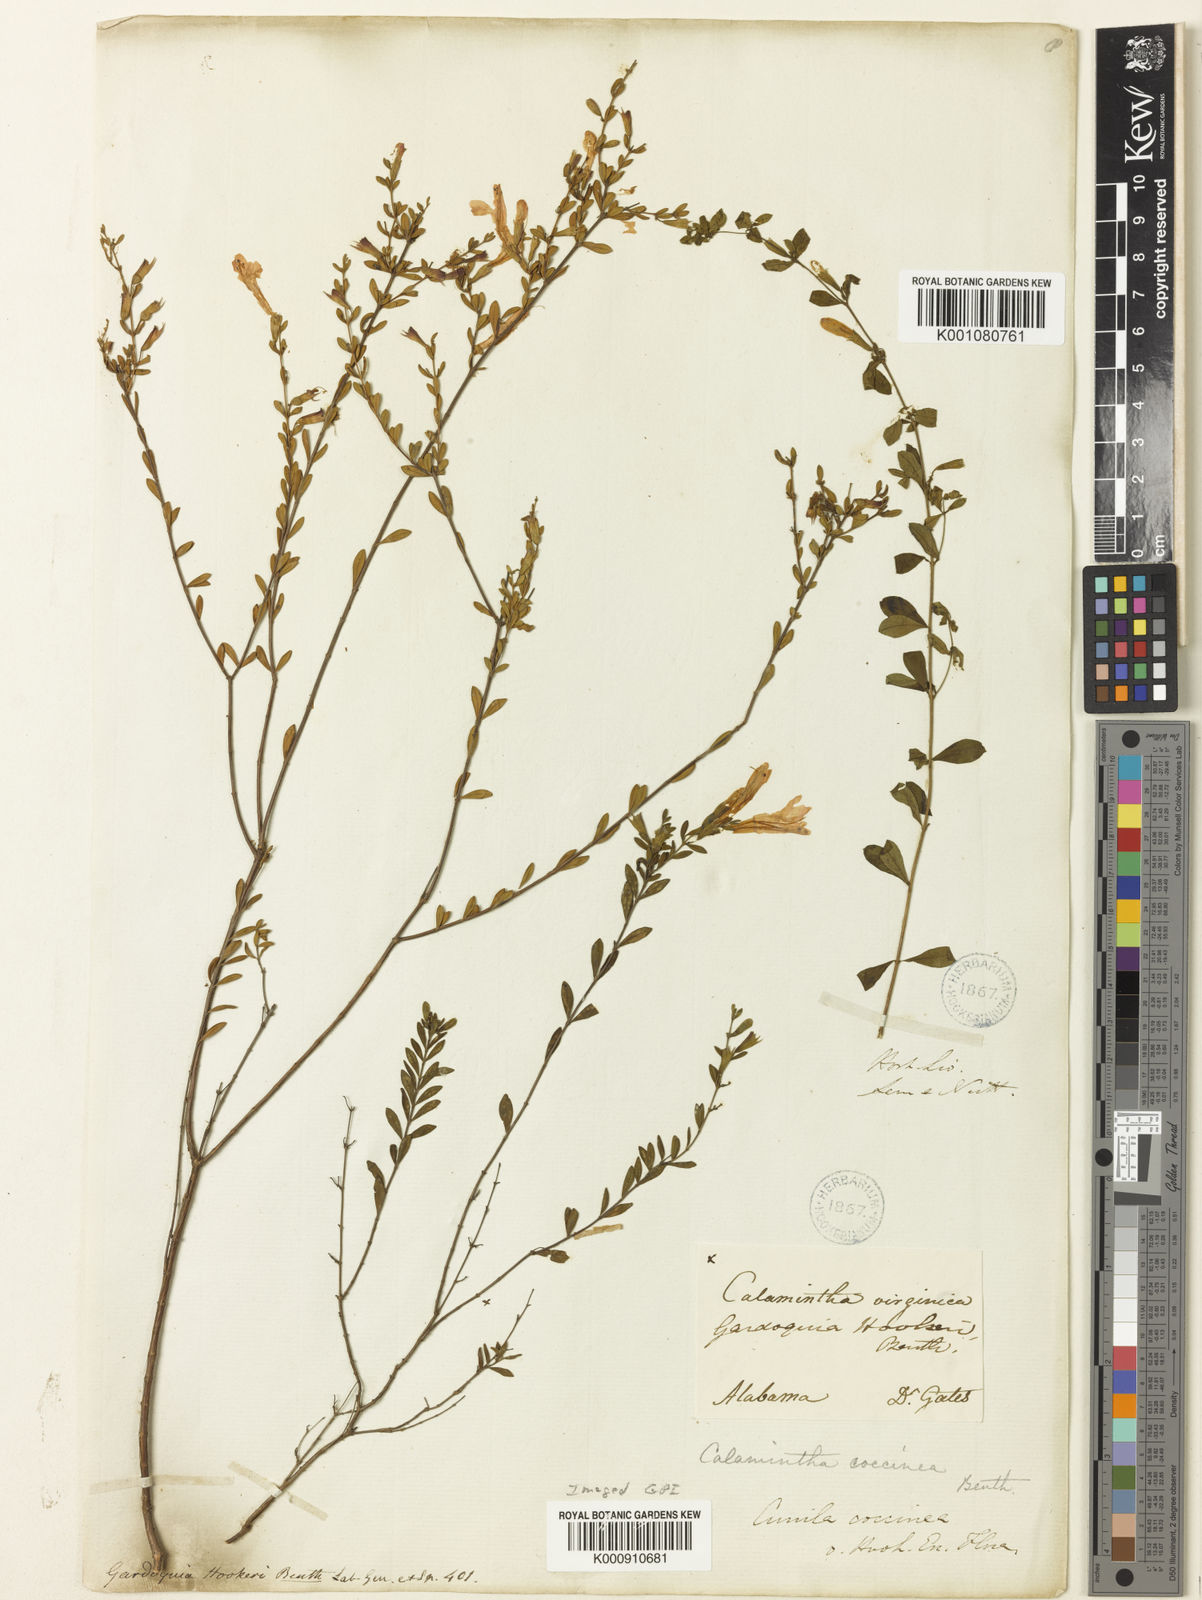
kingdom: Plantae
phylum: Tracheophyta
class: Magnoliopsida
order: Lamiales
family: Lamiaceae
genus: Micromeria
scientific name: Micromeria douglasii
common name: Yerba buena
